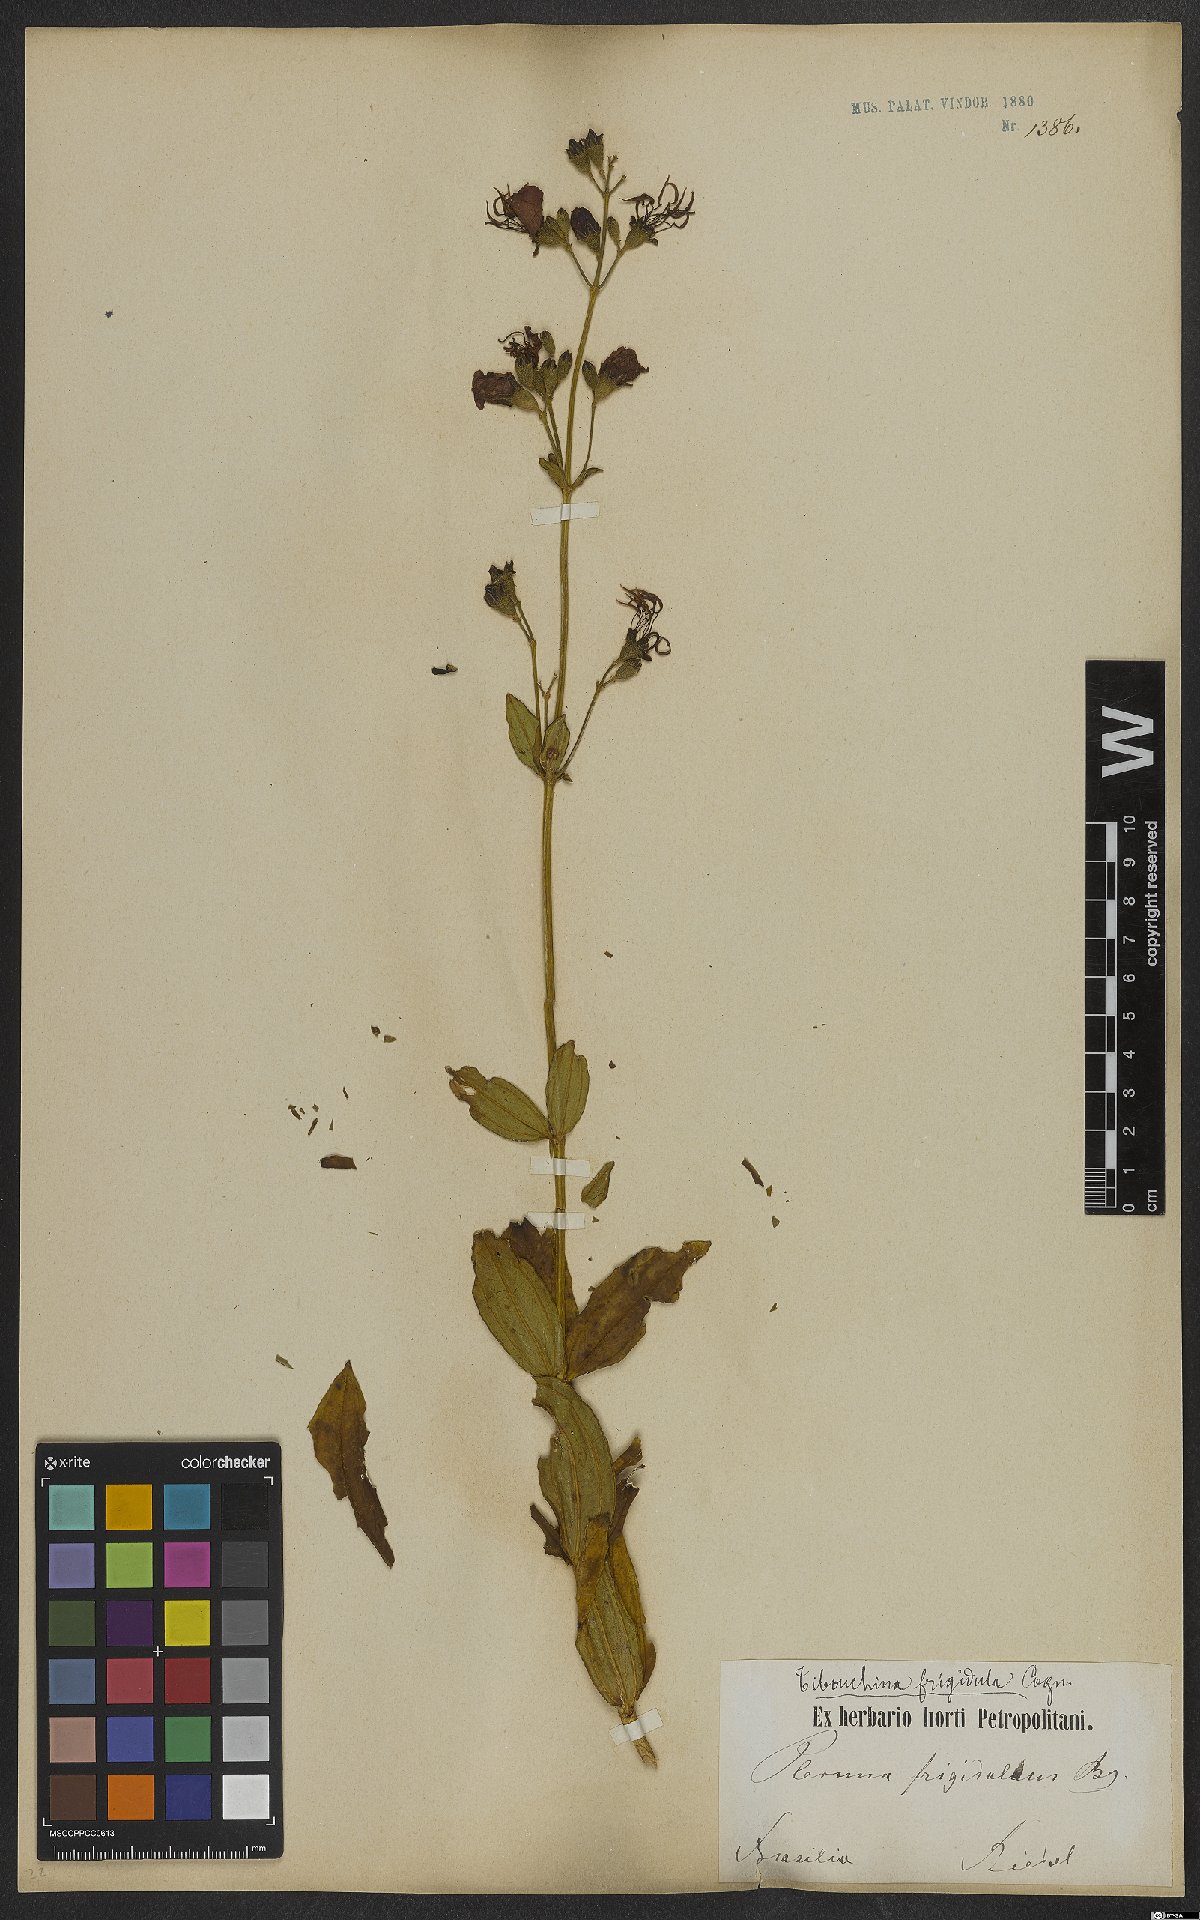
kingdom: Plantae
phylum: Tracheophyta
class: Magnoliopsida
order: Myrtales
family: Melastomataceae
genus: Pleroma
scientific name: Pleroma martiusianum
